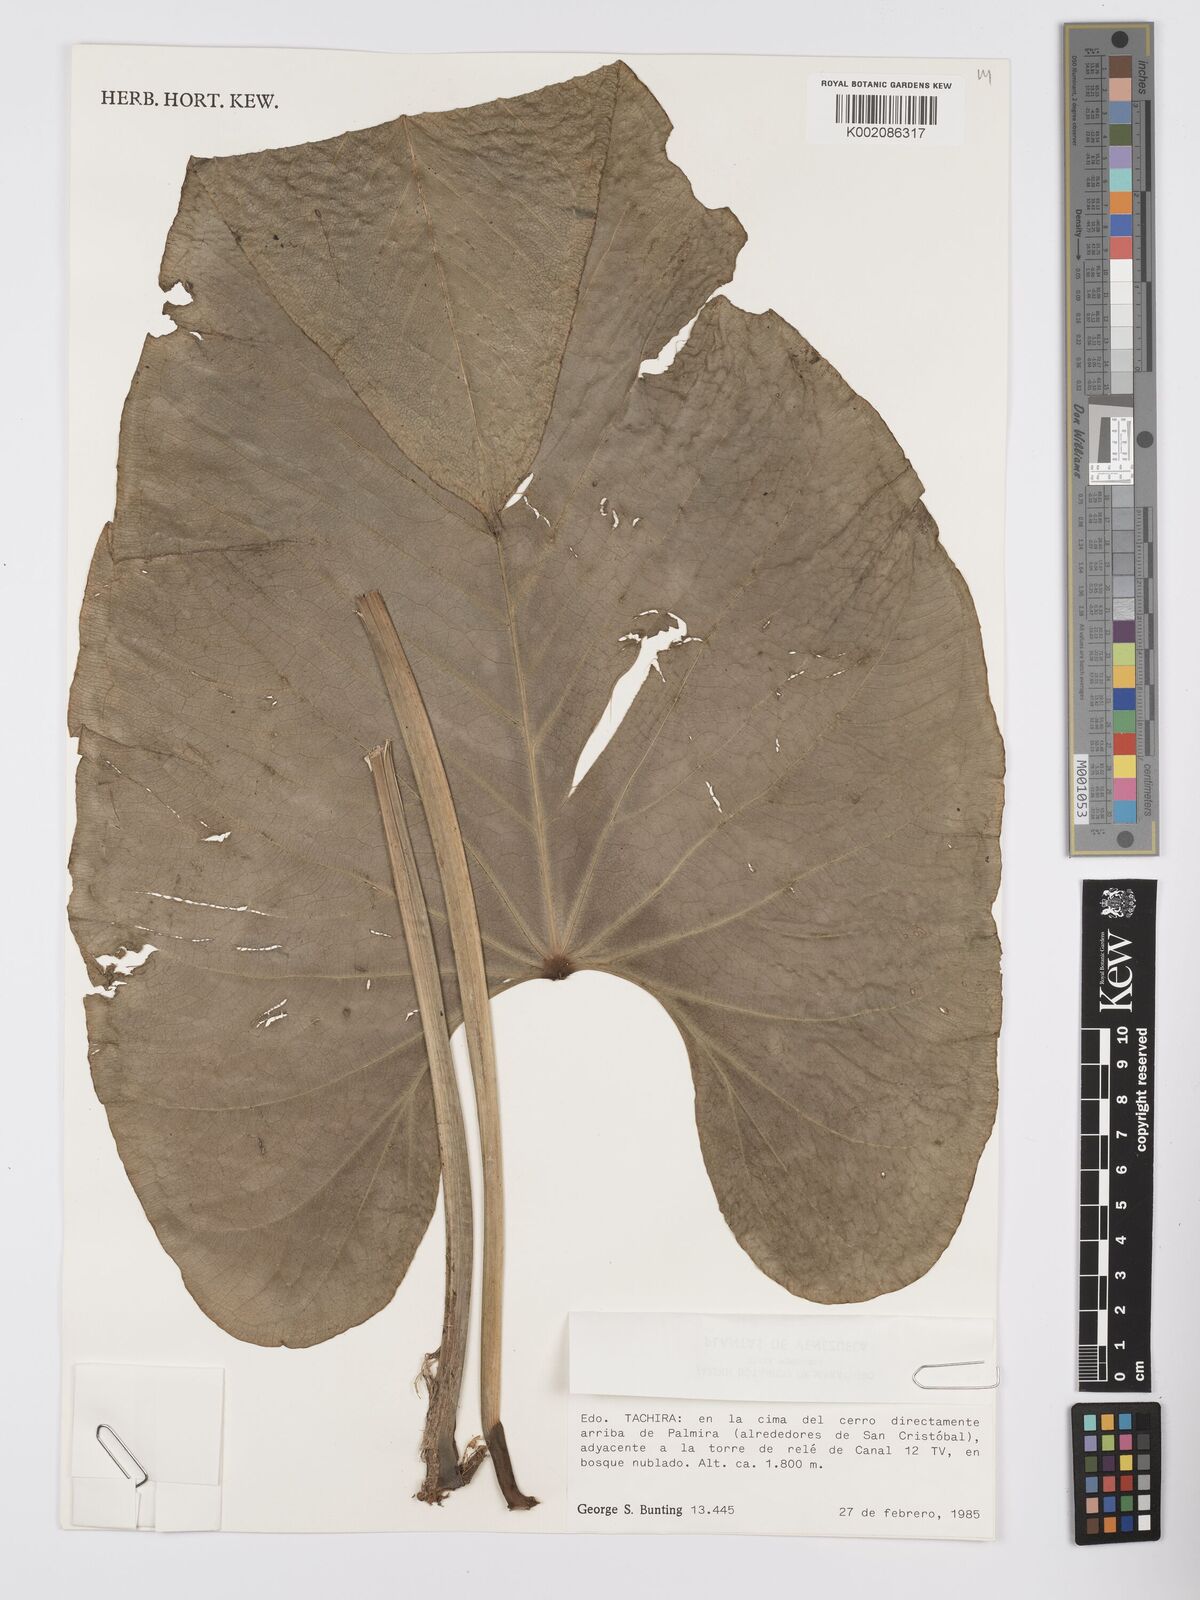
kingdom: Plantae
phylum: Tracheophyta
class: Liliopsida
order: Alismatales
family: Araceae
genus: Anthurium
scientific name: Anthurium julianii
